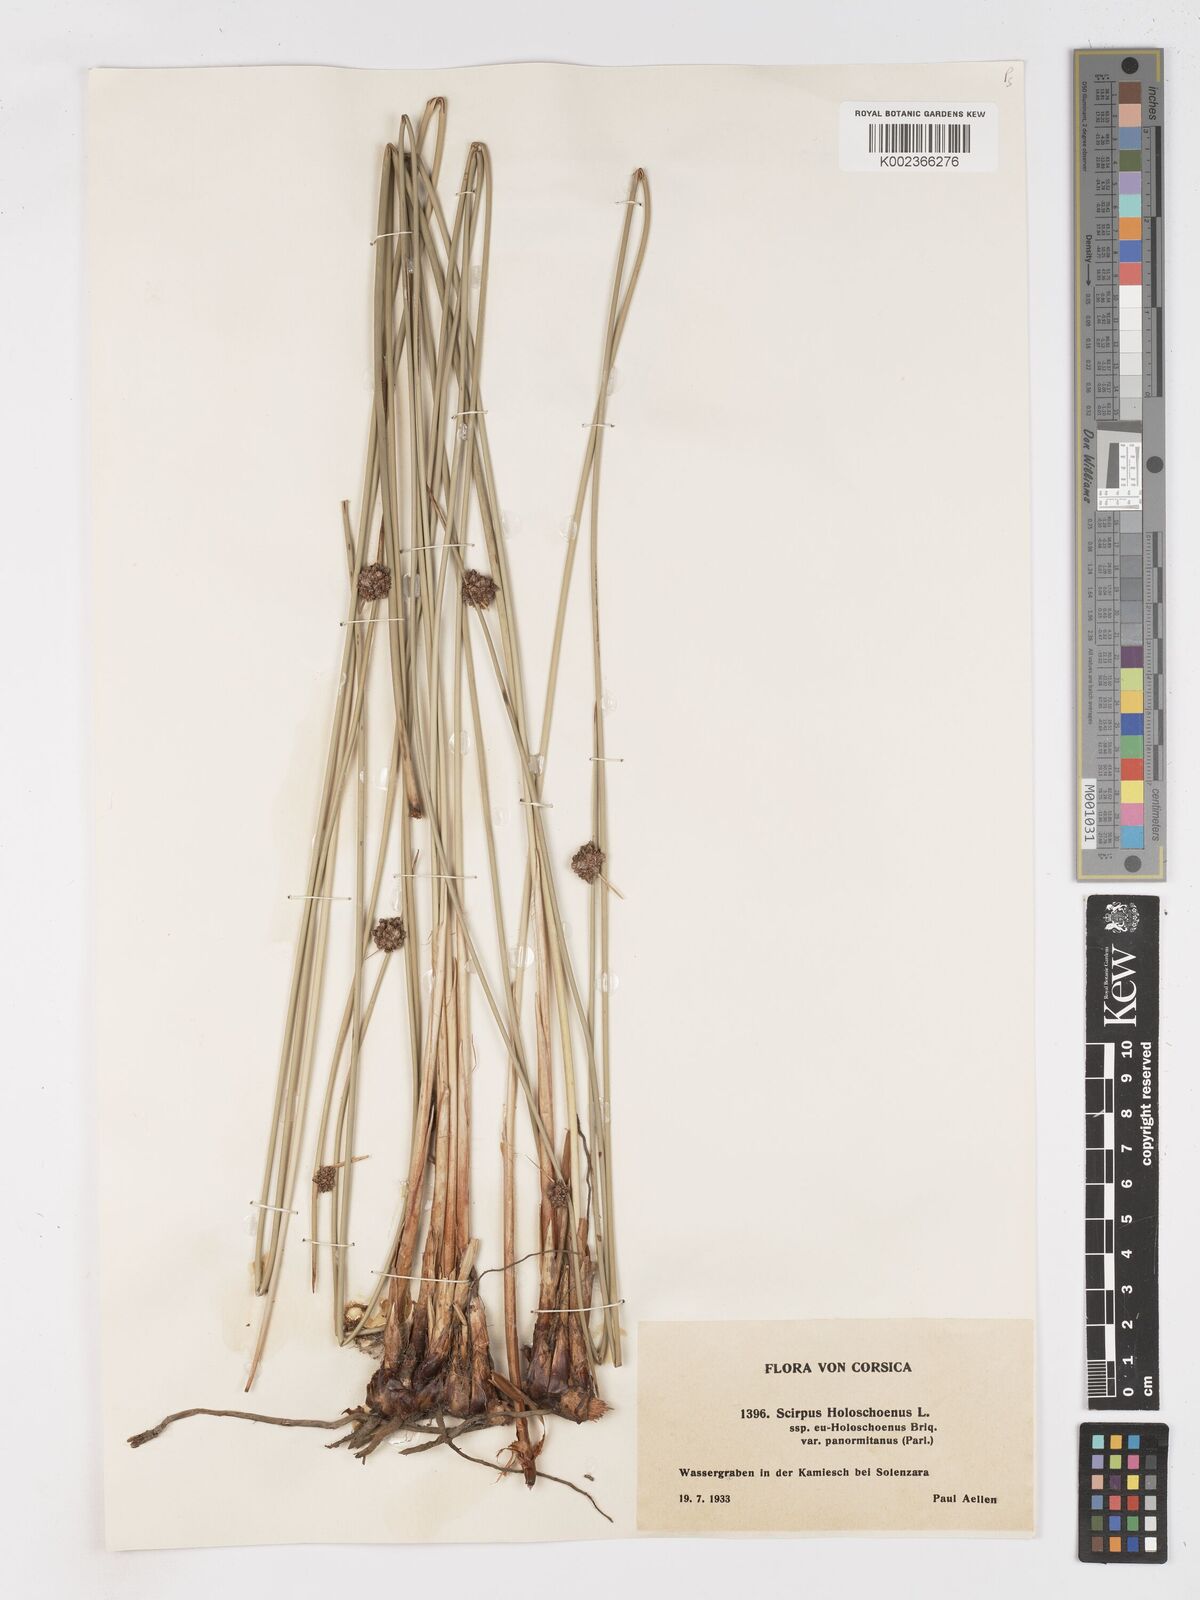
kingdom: Plantae
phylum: Tracheophyta
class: Liliopsida
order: Poales
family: Cyperaceae
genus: Scirpoides
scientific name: Scirpoides holoschoenus
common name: Round-headed club-rush
